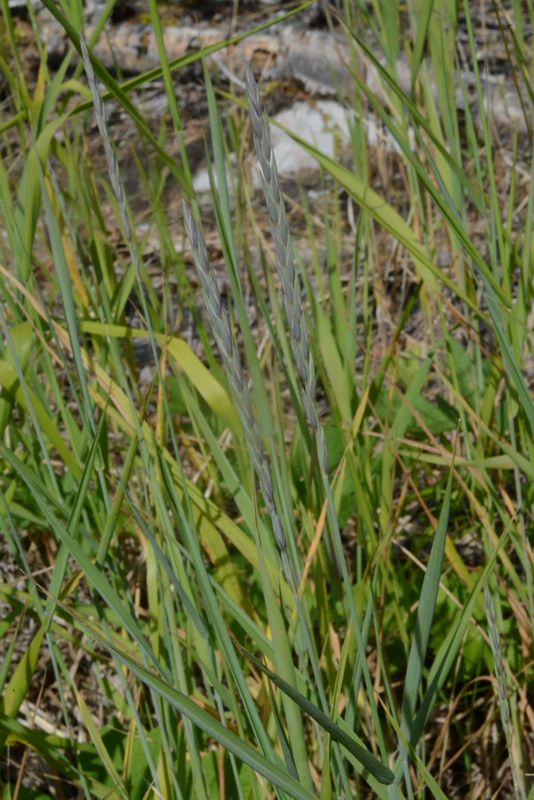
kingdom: Plantae
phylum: Tracheophyta
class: Liliopsida
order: Poales
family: Poaceae
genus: Elymus
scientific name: Elymus repens
